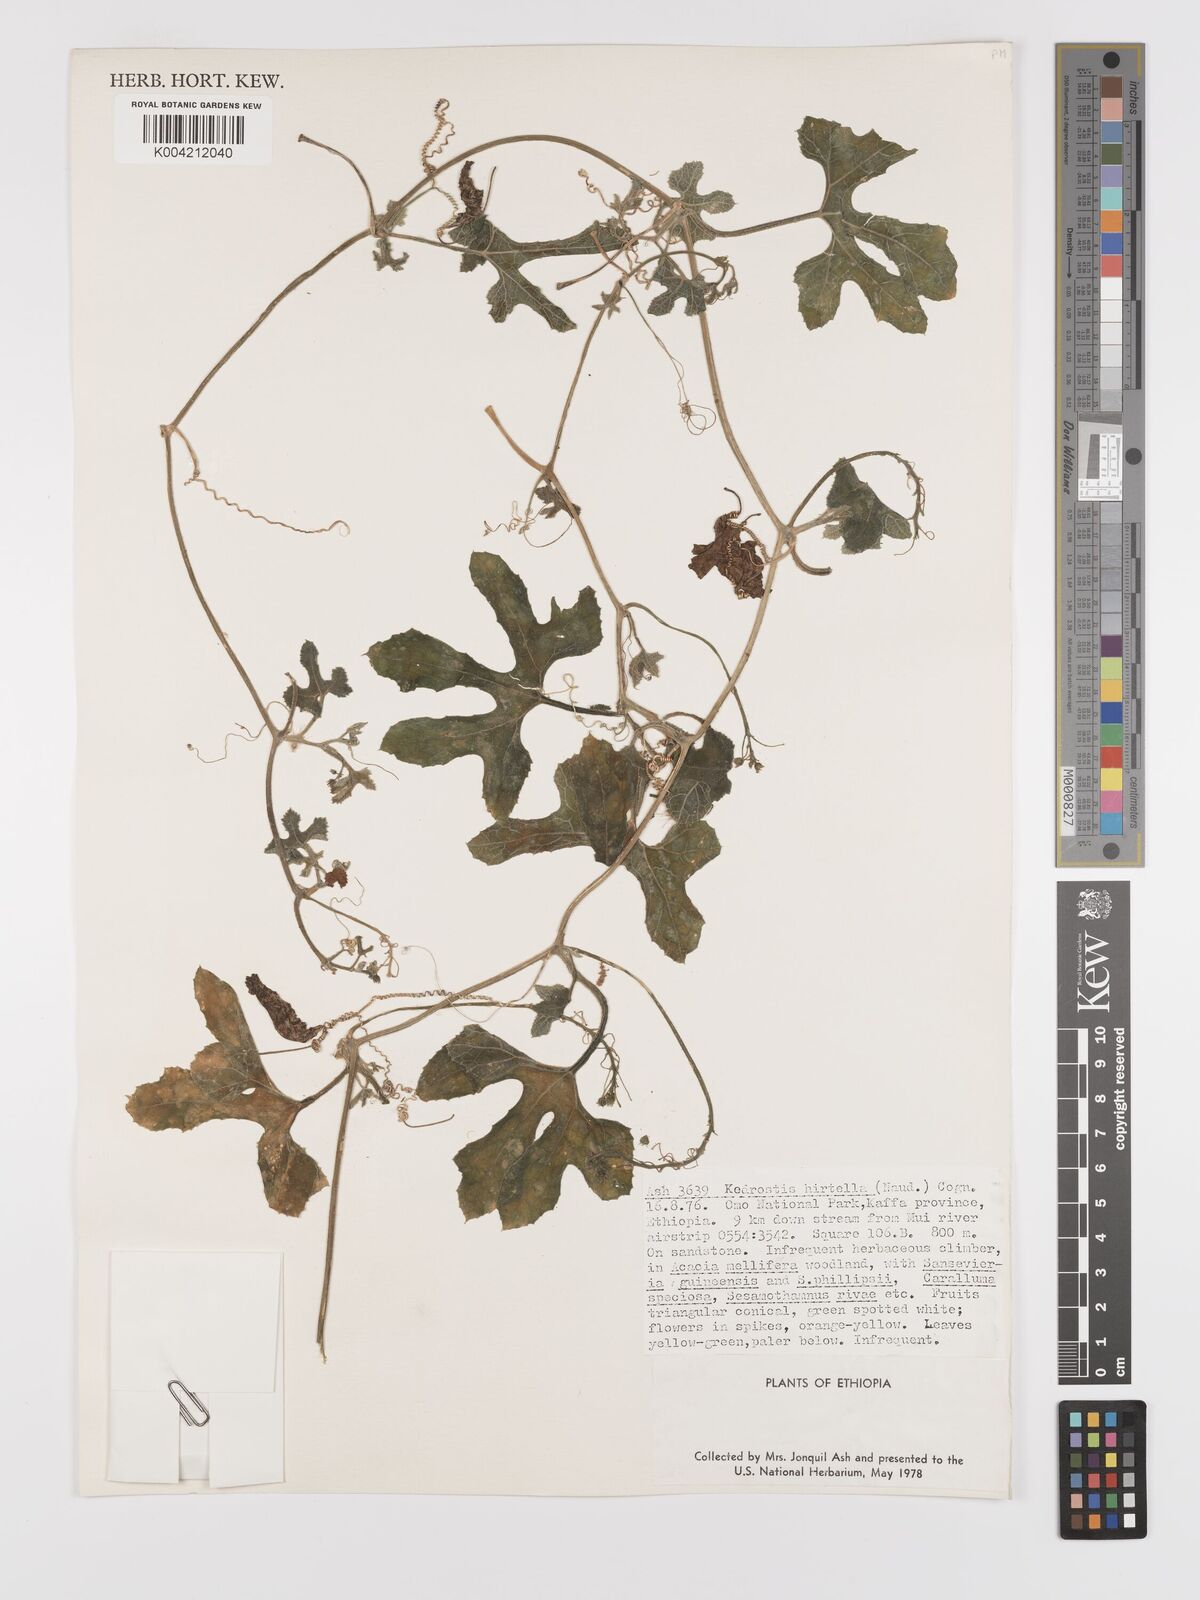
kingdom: Plantae
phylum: Tracheophyta
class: Magnoliopsida
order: Cucurbitales
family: Cucurbitaceae
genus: Kedrostis
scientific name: Kedrostis leloja
